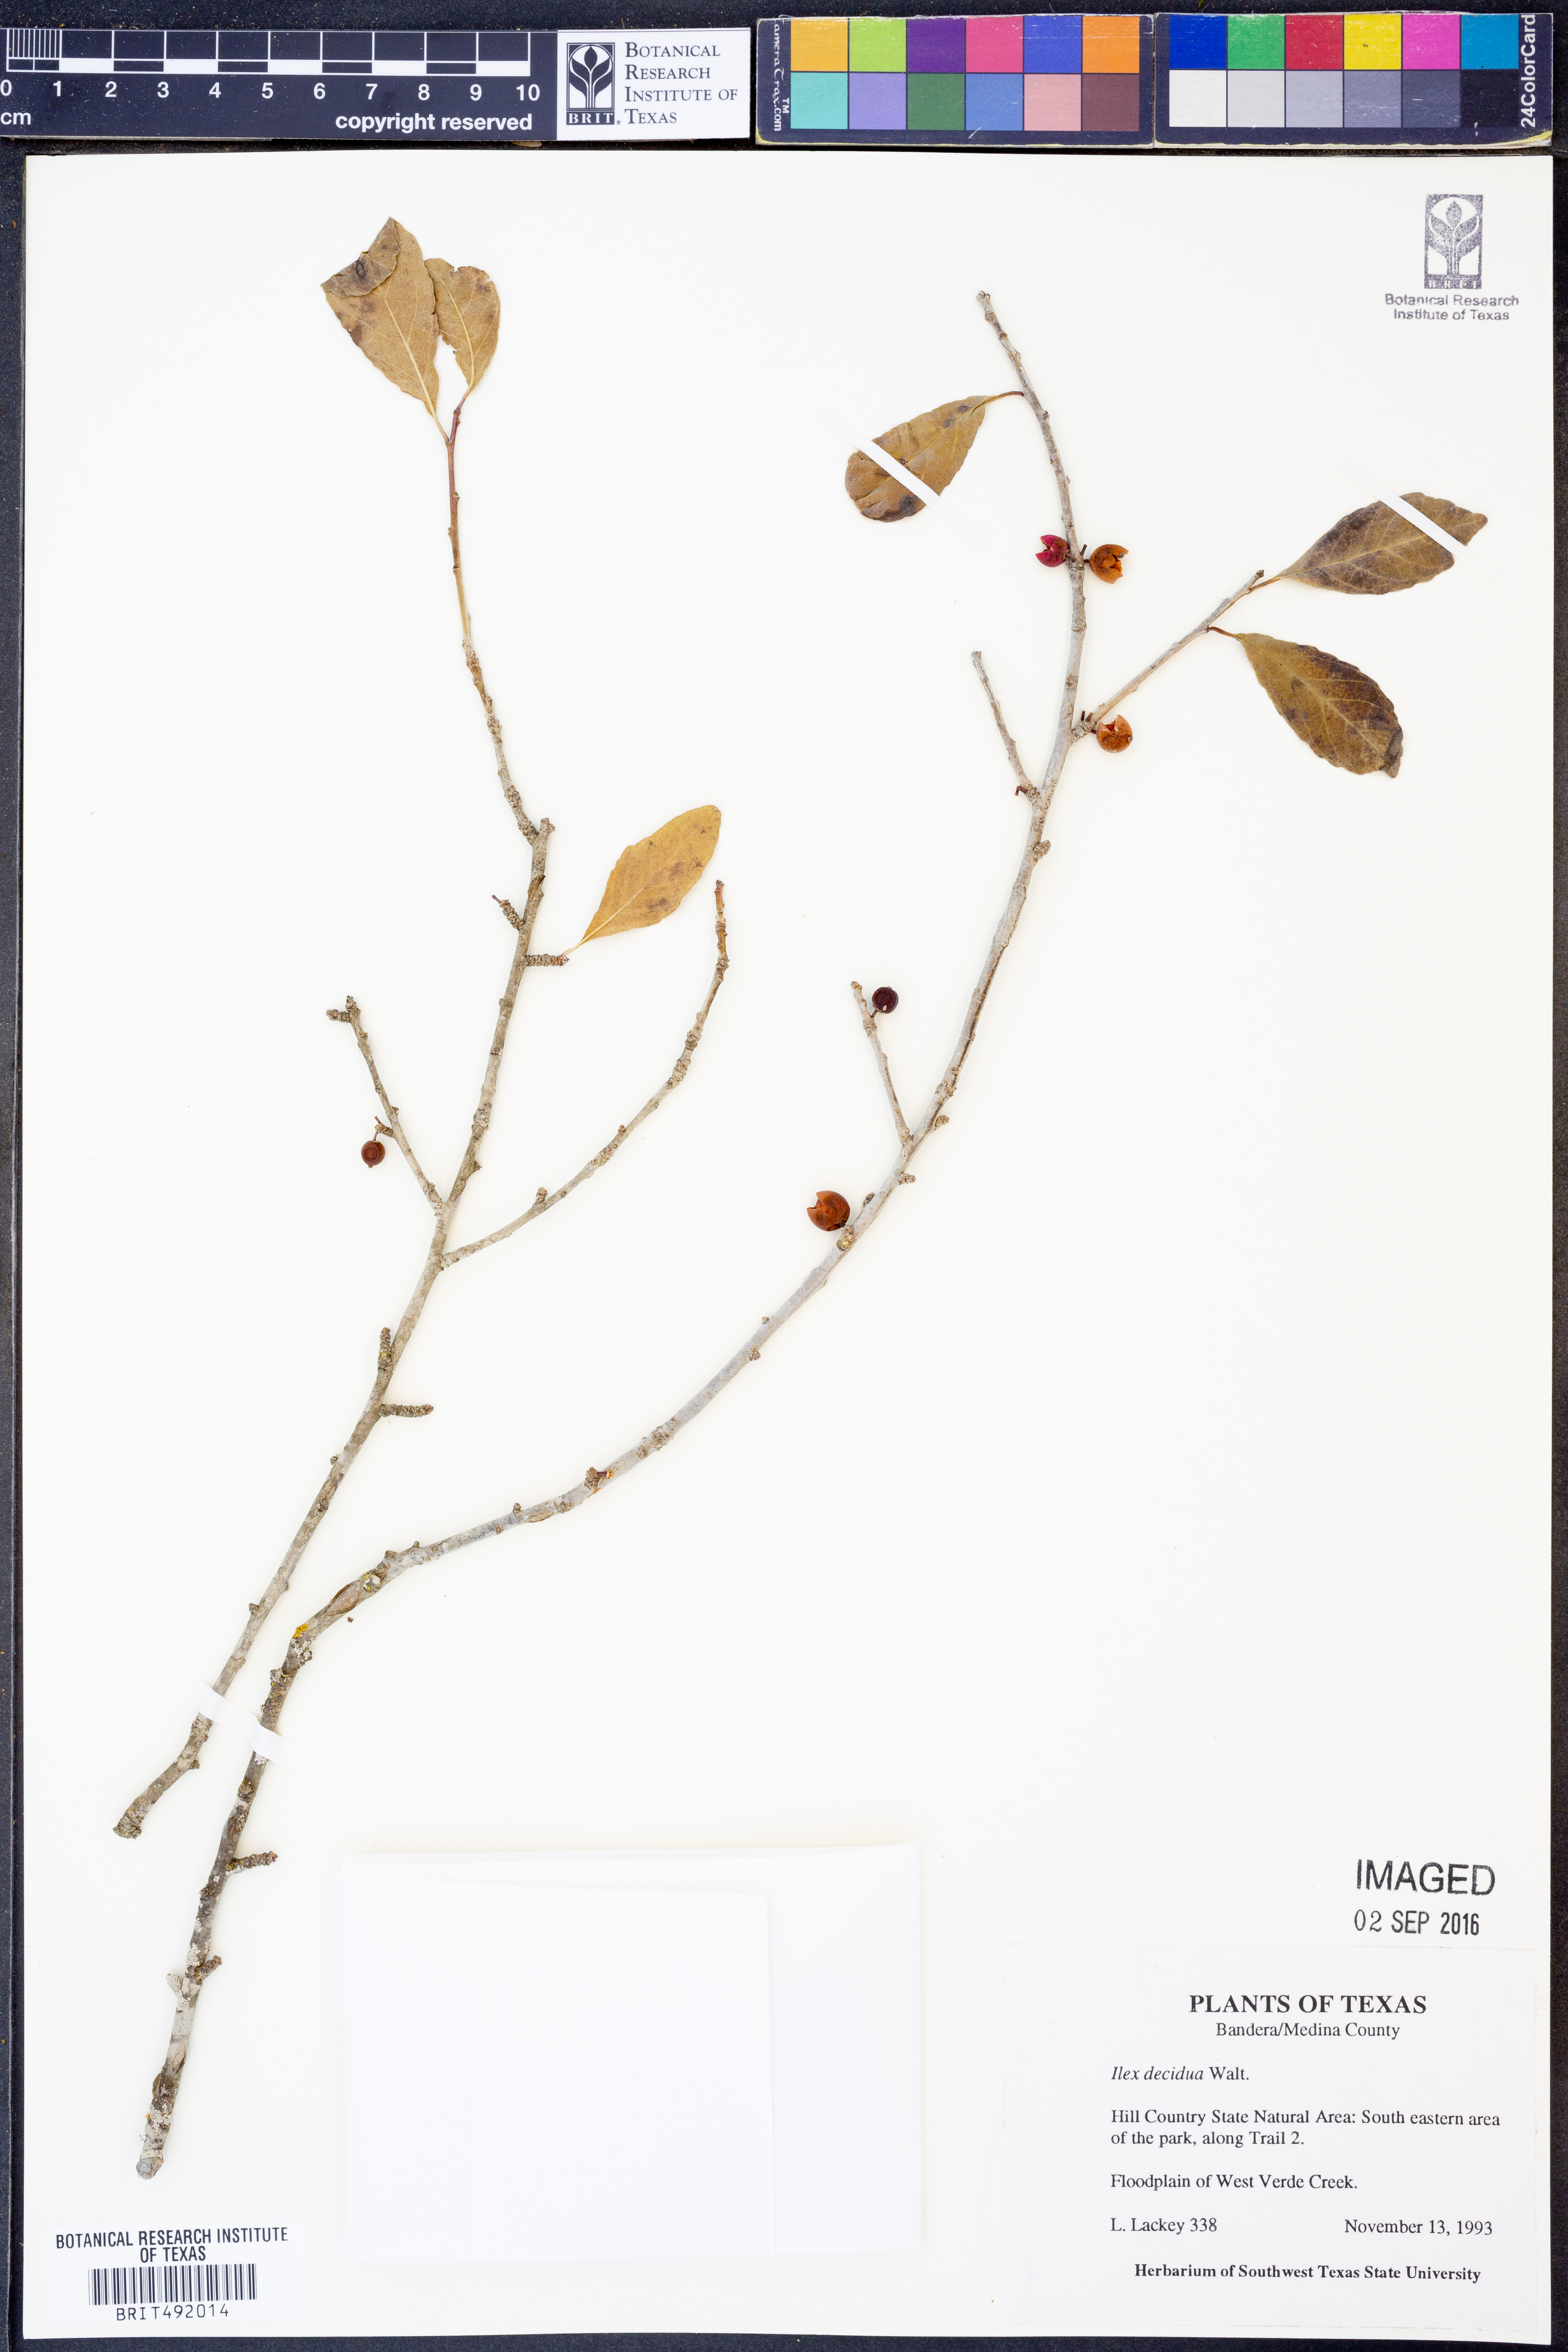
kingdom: Plantae
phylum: Tracheophyta
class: Magnoliopsida
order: Aquifoliales
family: Aquifoliaceae
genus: Ilex
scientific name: Ilex decidua
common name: Possum-haw
